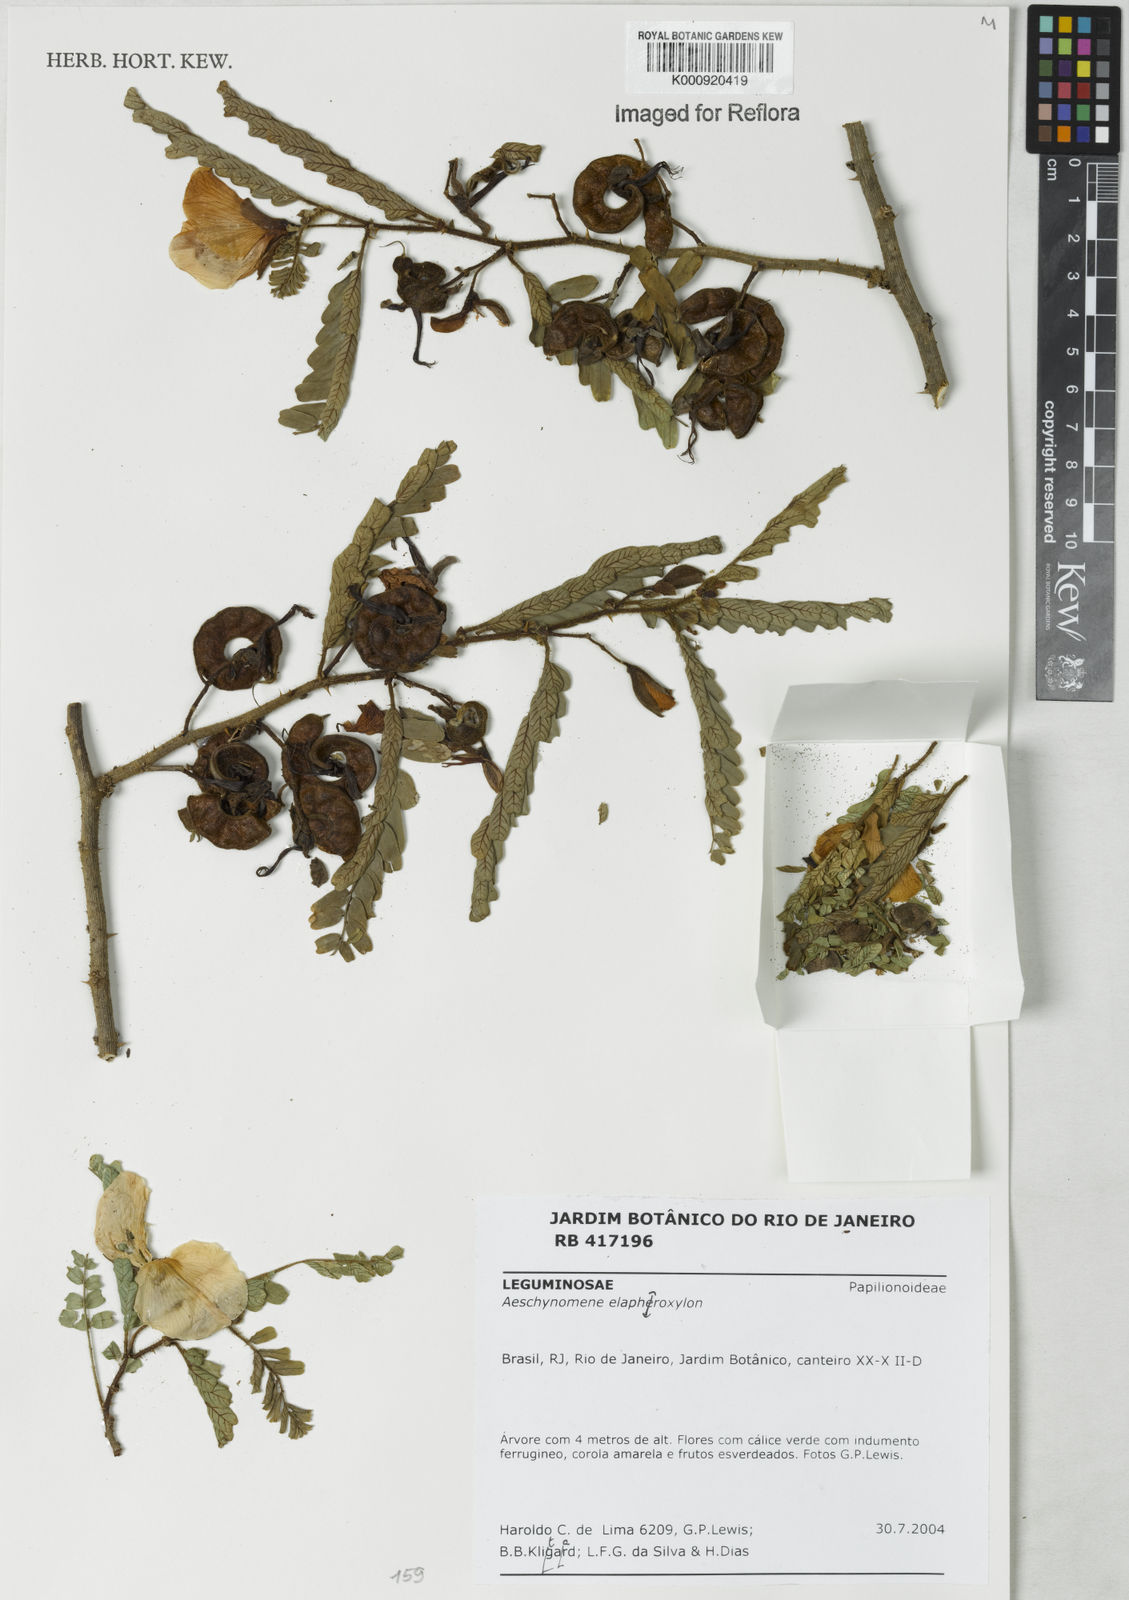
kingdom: Plantae
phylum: Tracheophyta
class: Magnoliopsida
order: Fabales
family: Fabaceae
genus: Aeschynomene
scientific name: Aeschynomene elaphroxylon
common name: Ambatch
